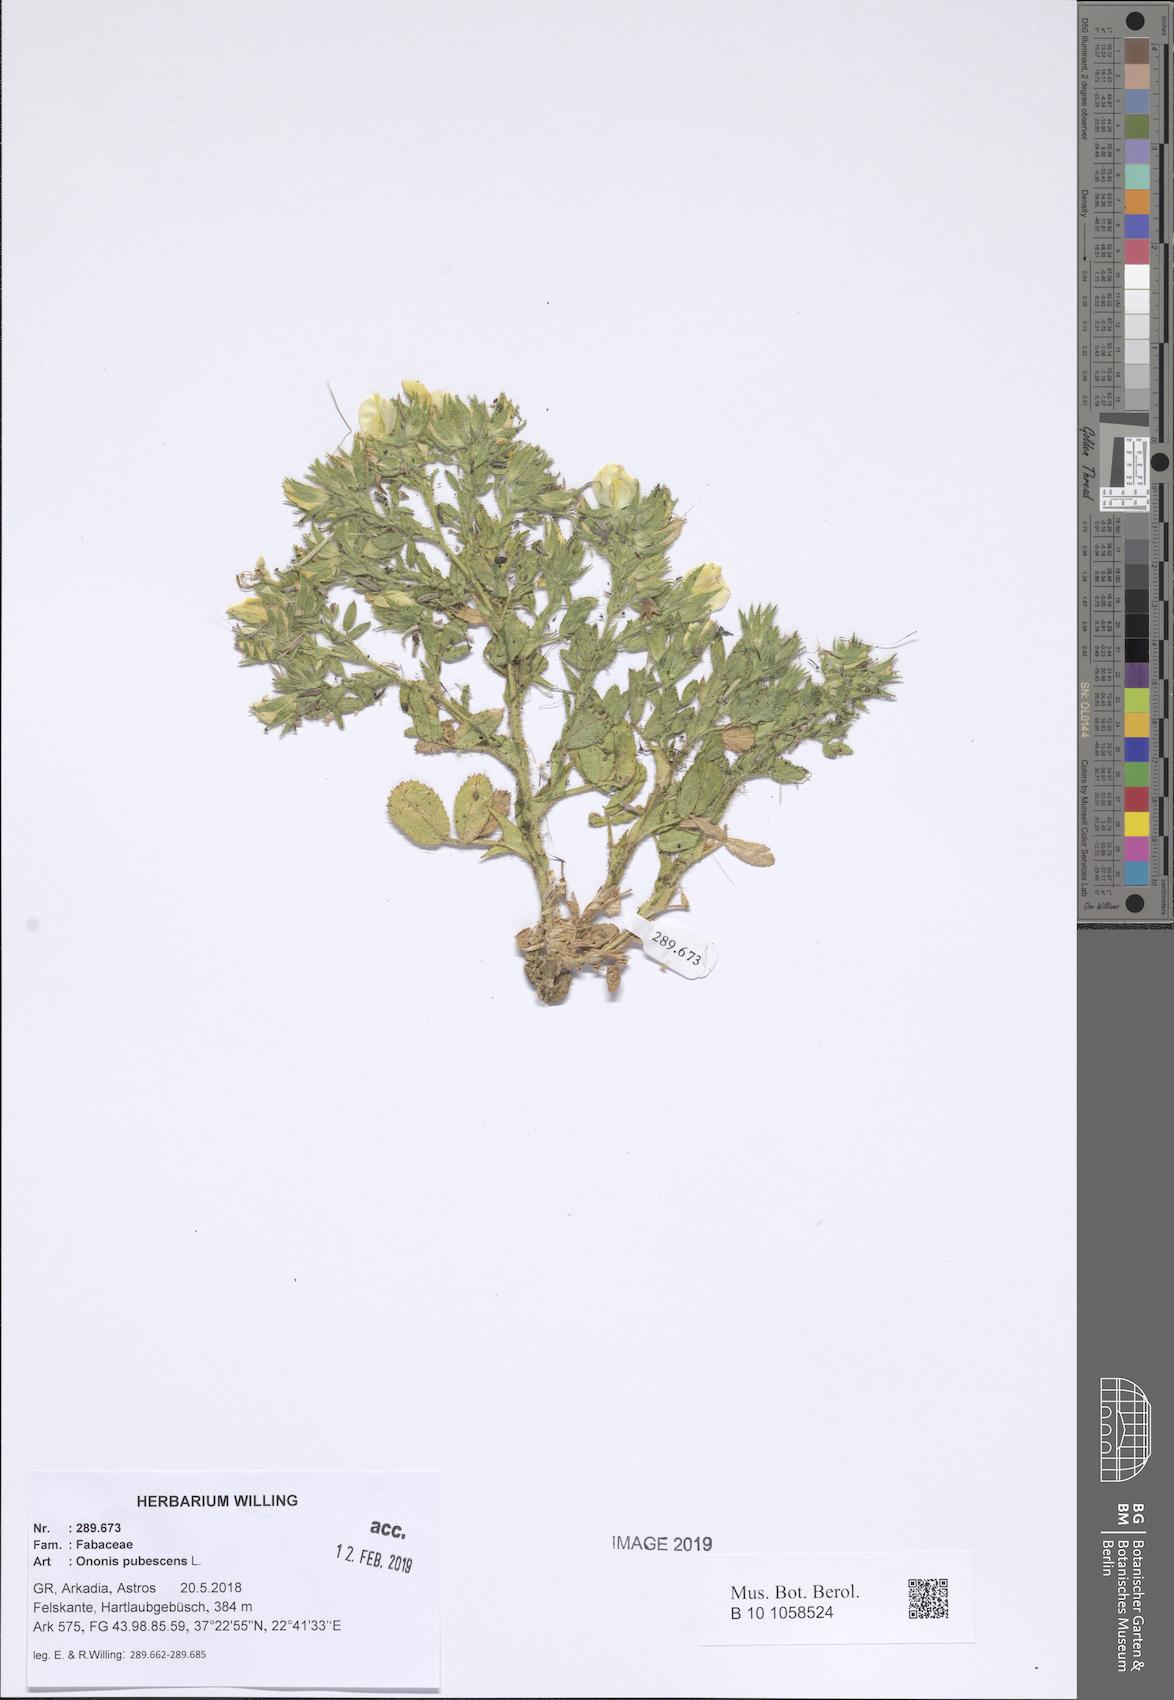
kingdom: Plantae
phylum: Tracheophyta
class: Magnoliopsida
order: Fabales
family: Fabaceae
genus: Ononis
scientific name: Ononis pubescens
